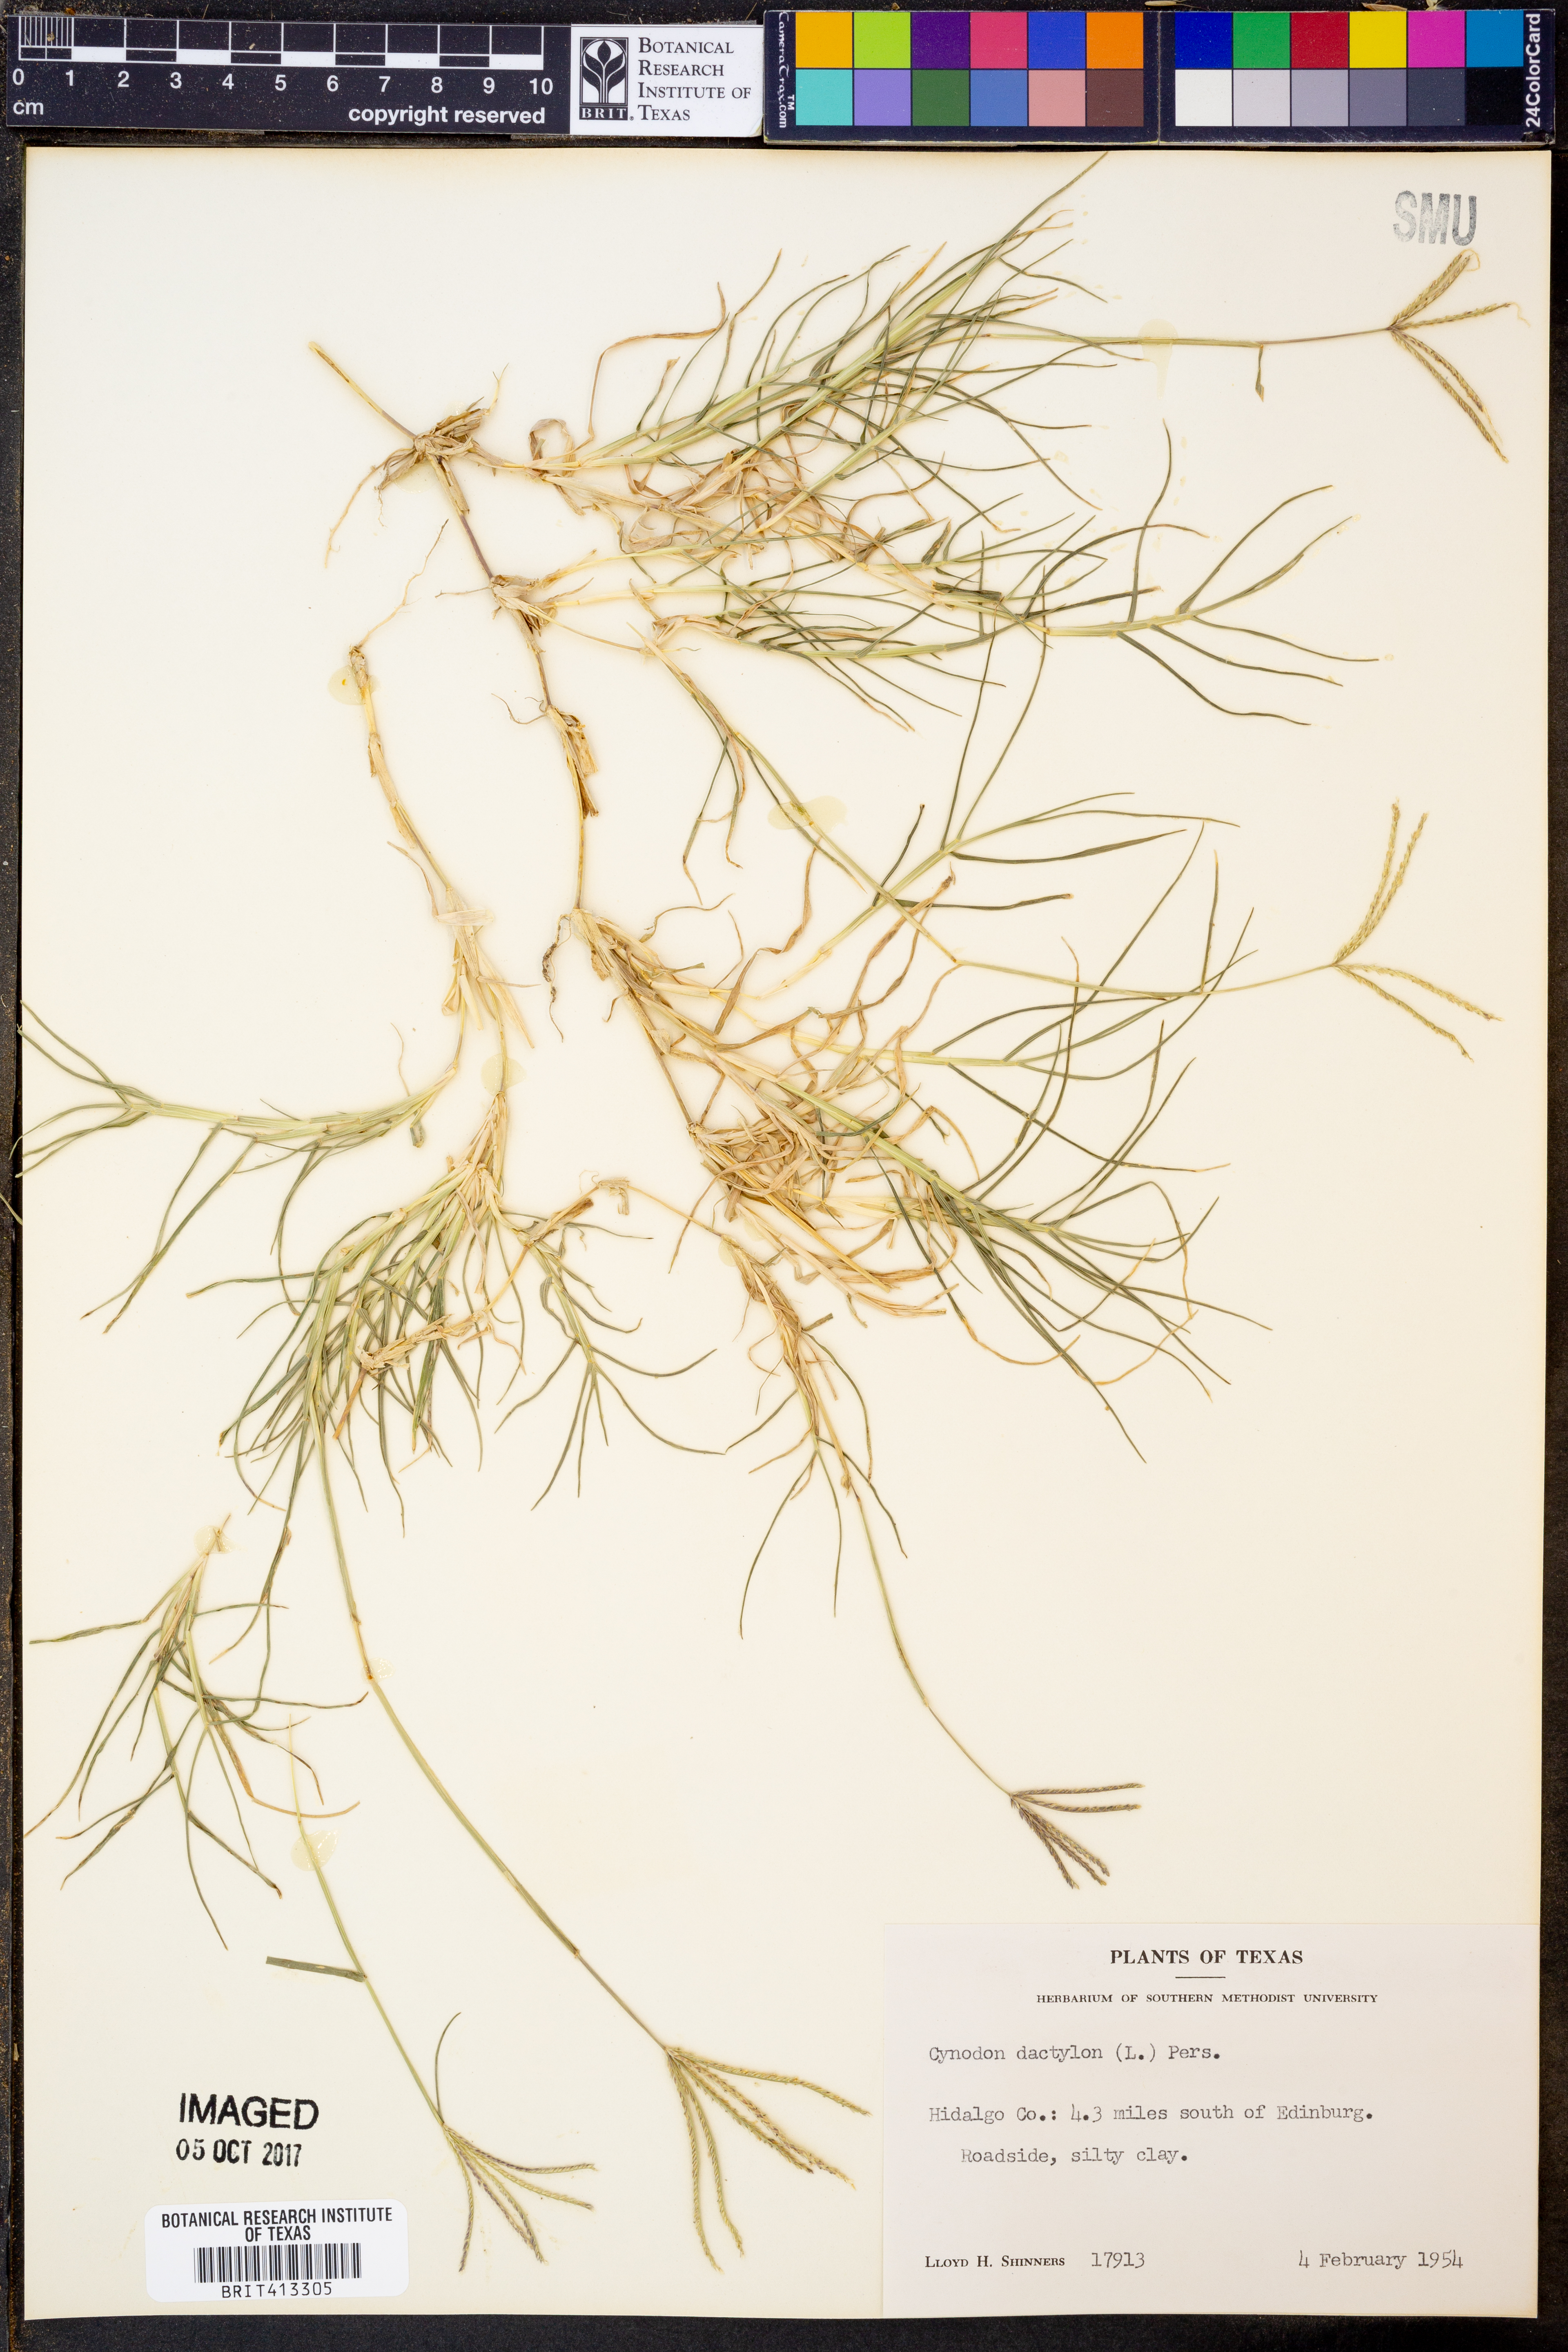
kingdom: Plantae
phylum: Tracheophyta
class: Liliopsida
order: Poales
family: Poaceae
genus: Cynodon
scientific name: Cynodon dactylon
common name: Bermuda grass
